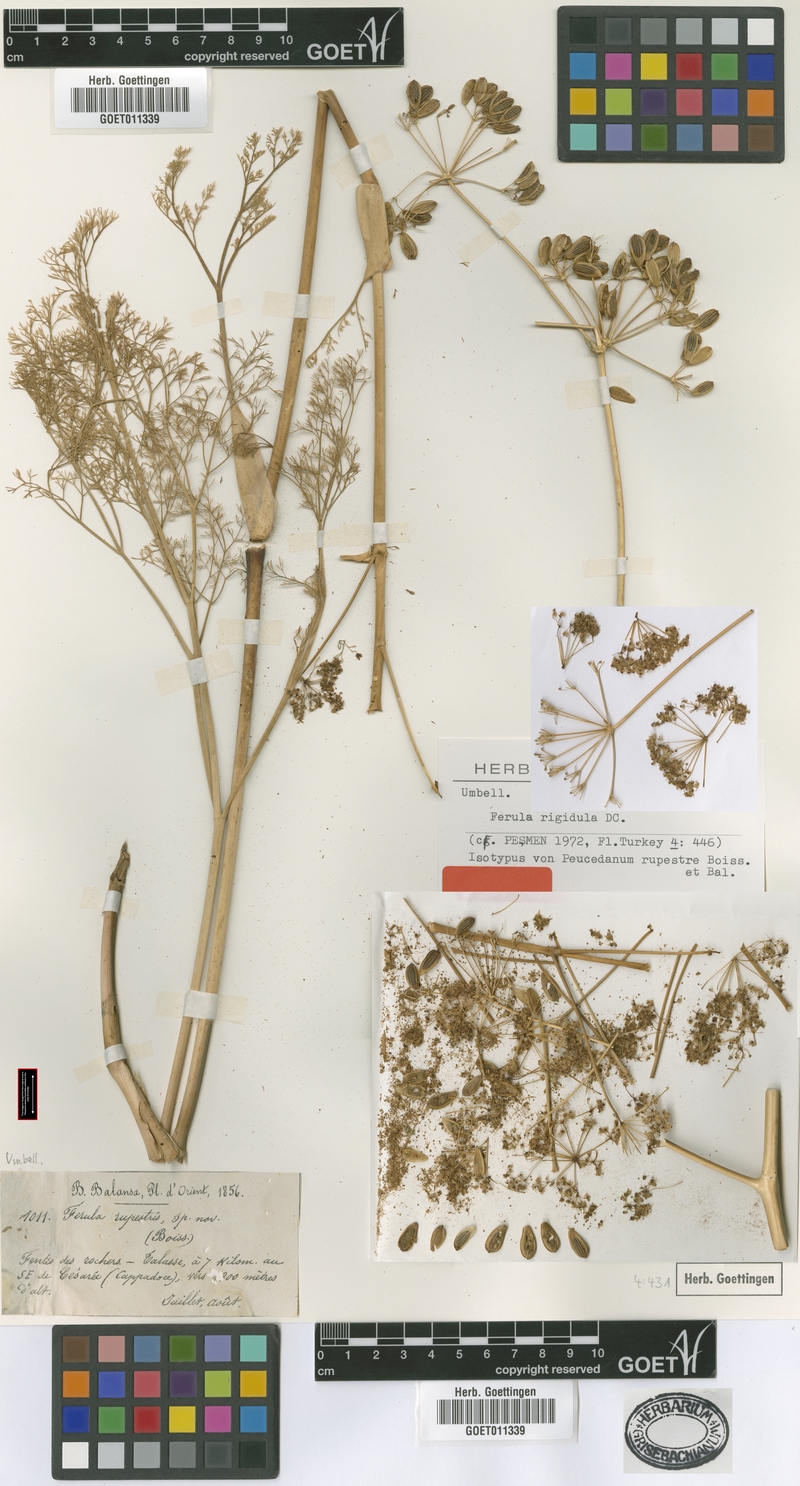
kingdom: Plantae
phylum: Tracheophyta
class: Magnoliopsida
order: Apiales
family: Apiaceae
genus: Ferula
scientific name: Ferula rigidula
